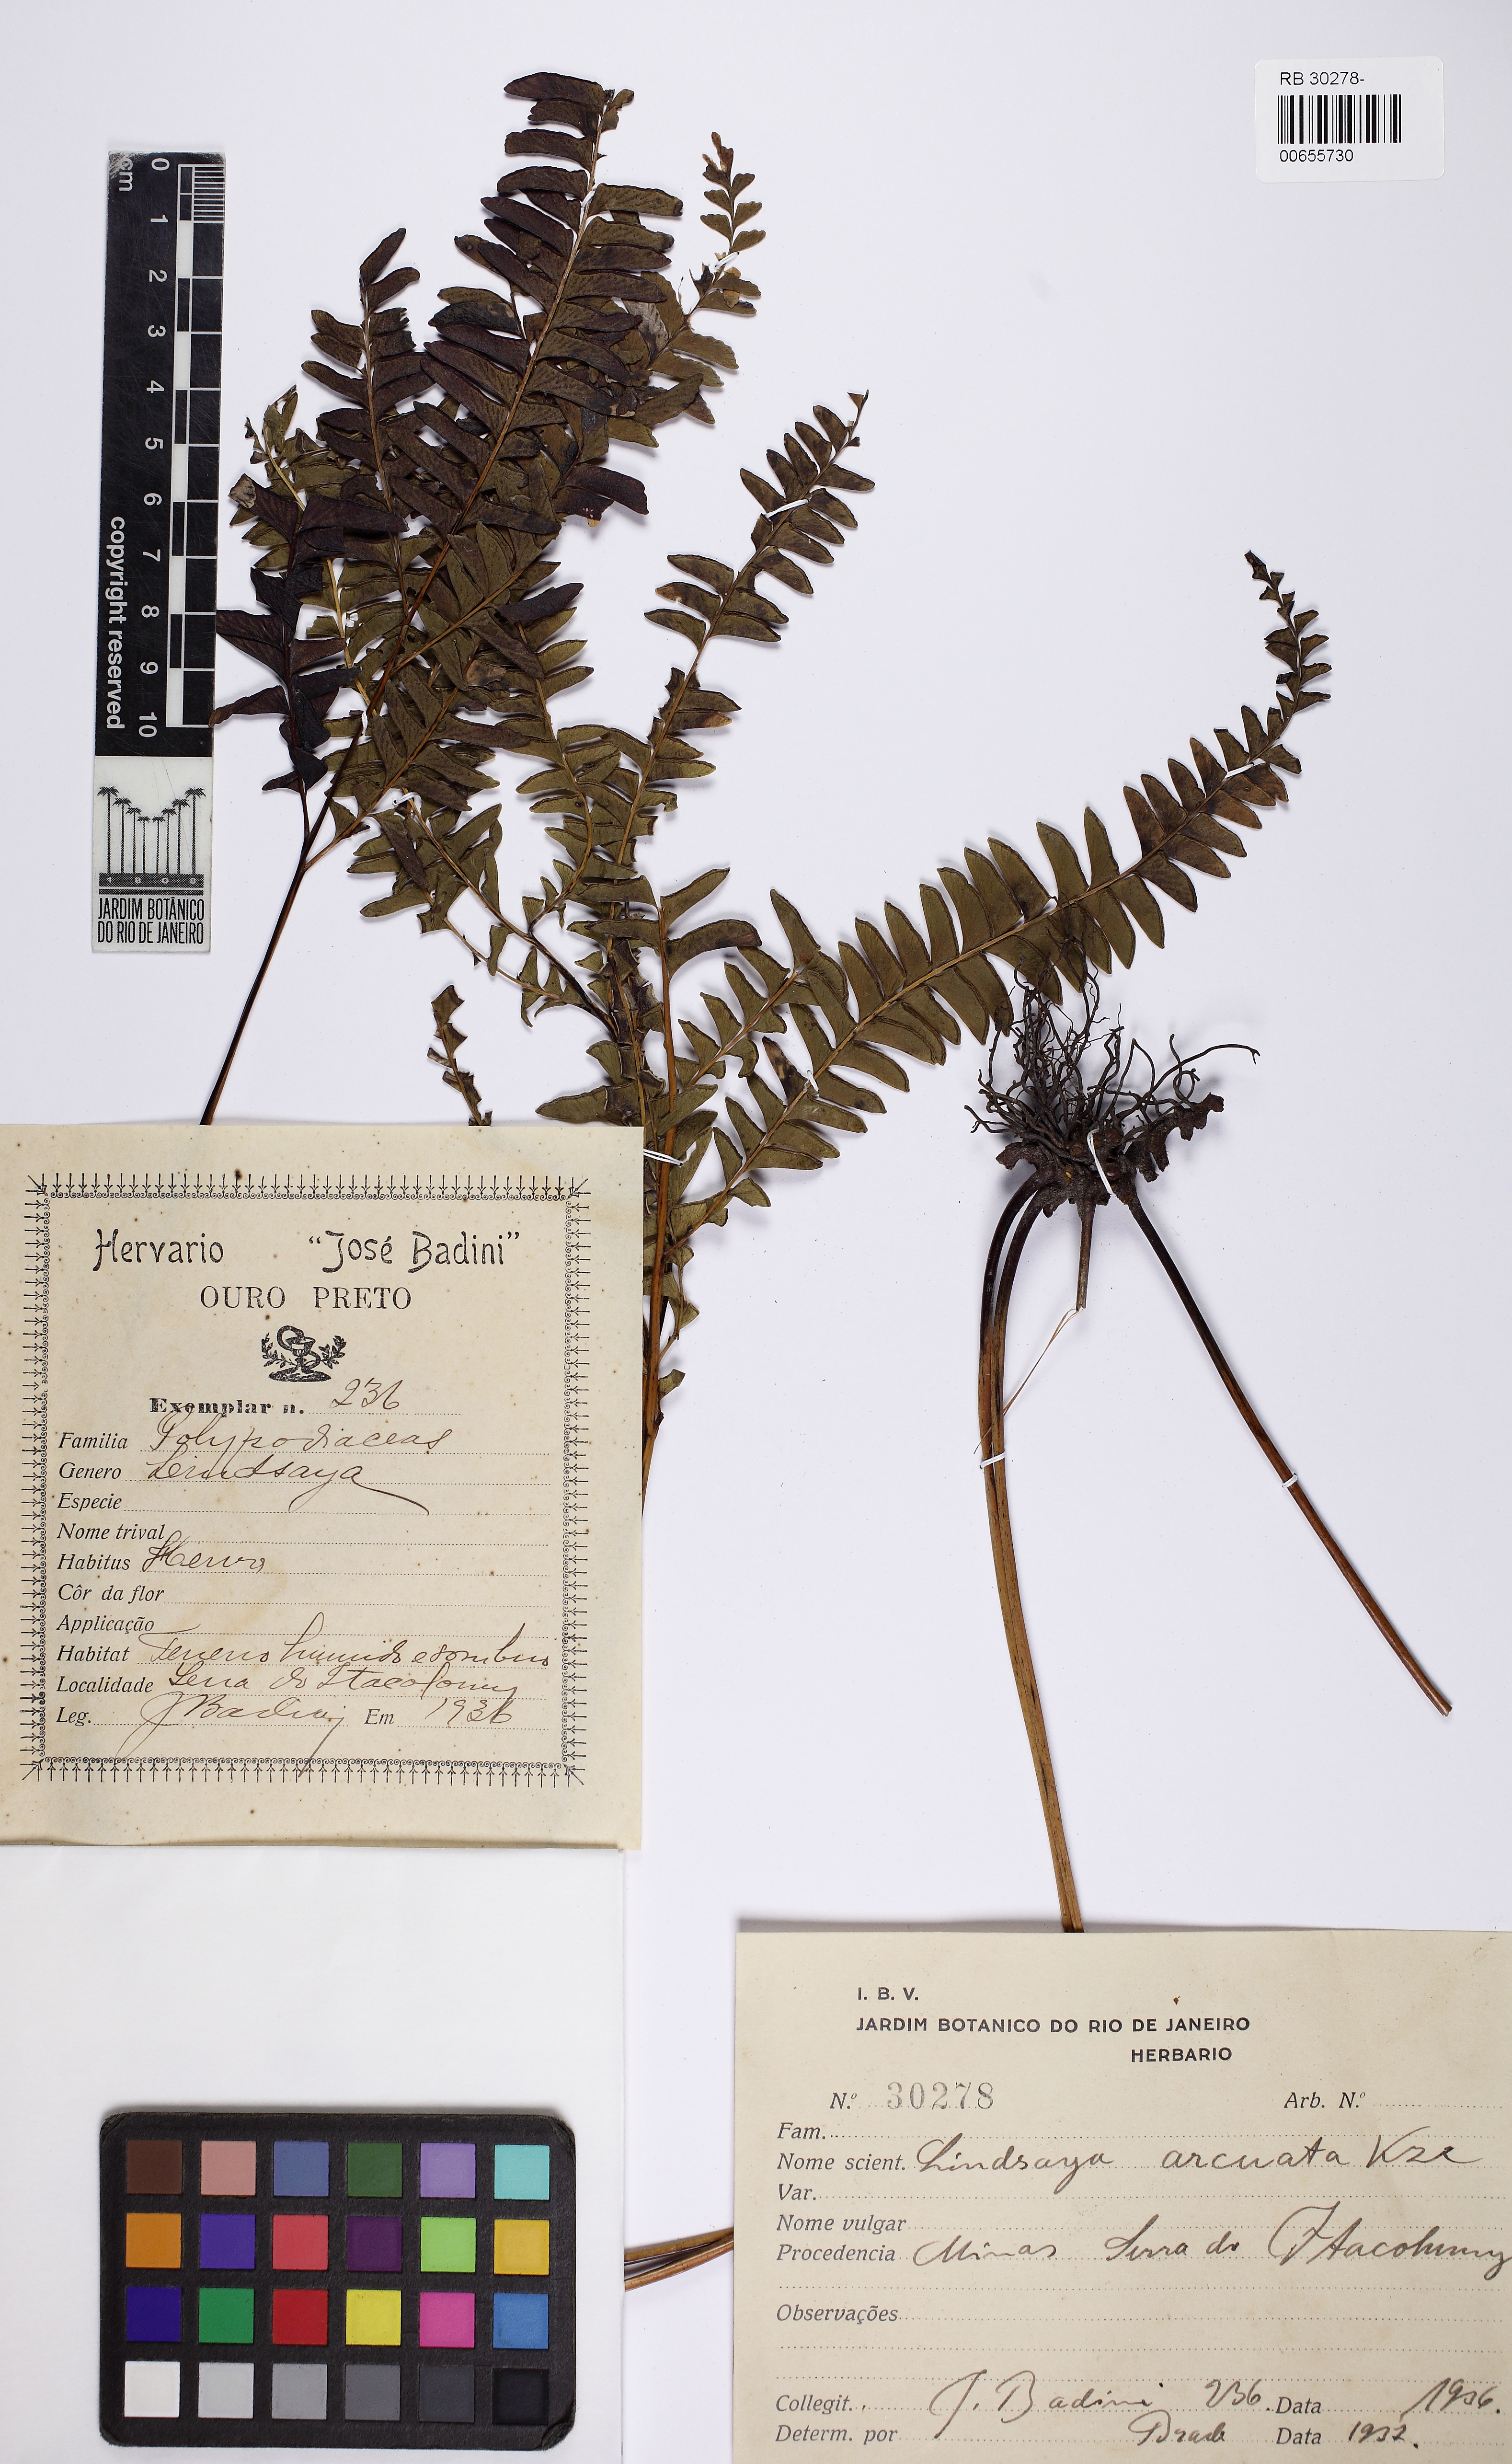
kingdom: Plantae
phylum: Tracheophyta
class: Polypodiopsida
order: Polypodiales
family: Lindsaeaceae
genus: Lindsaea
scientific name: Lindsaea arcuata
